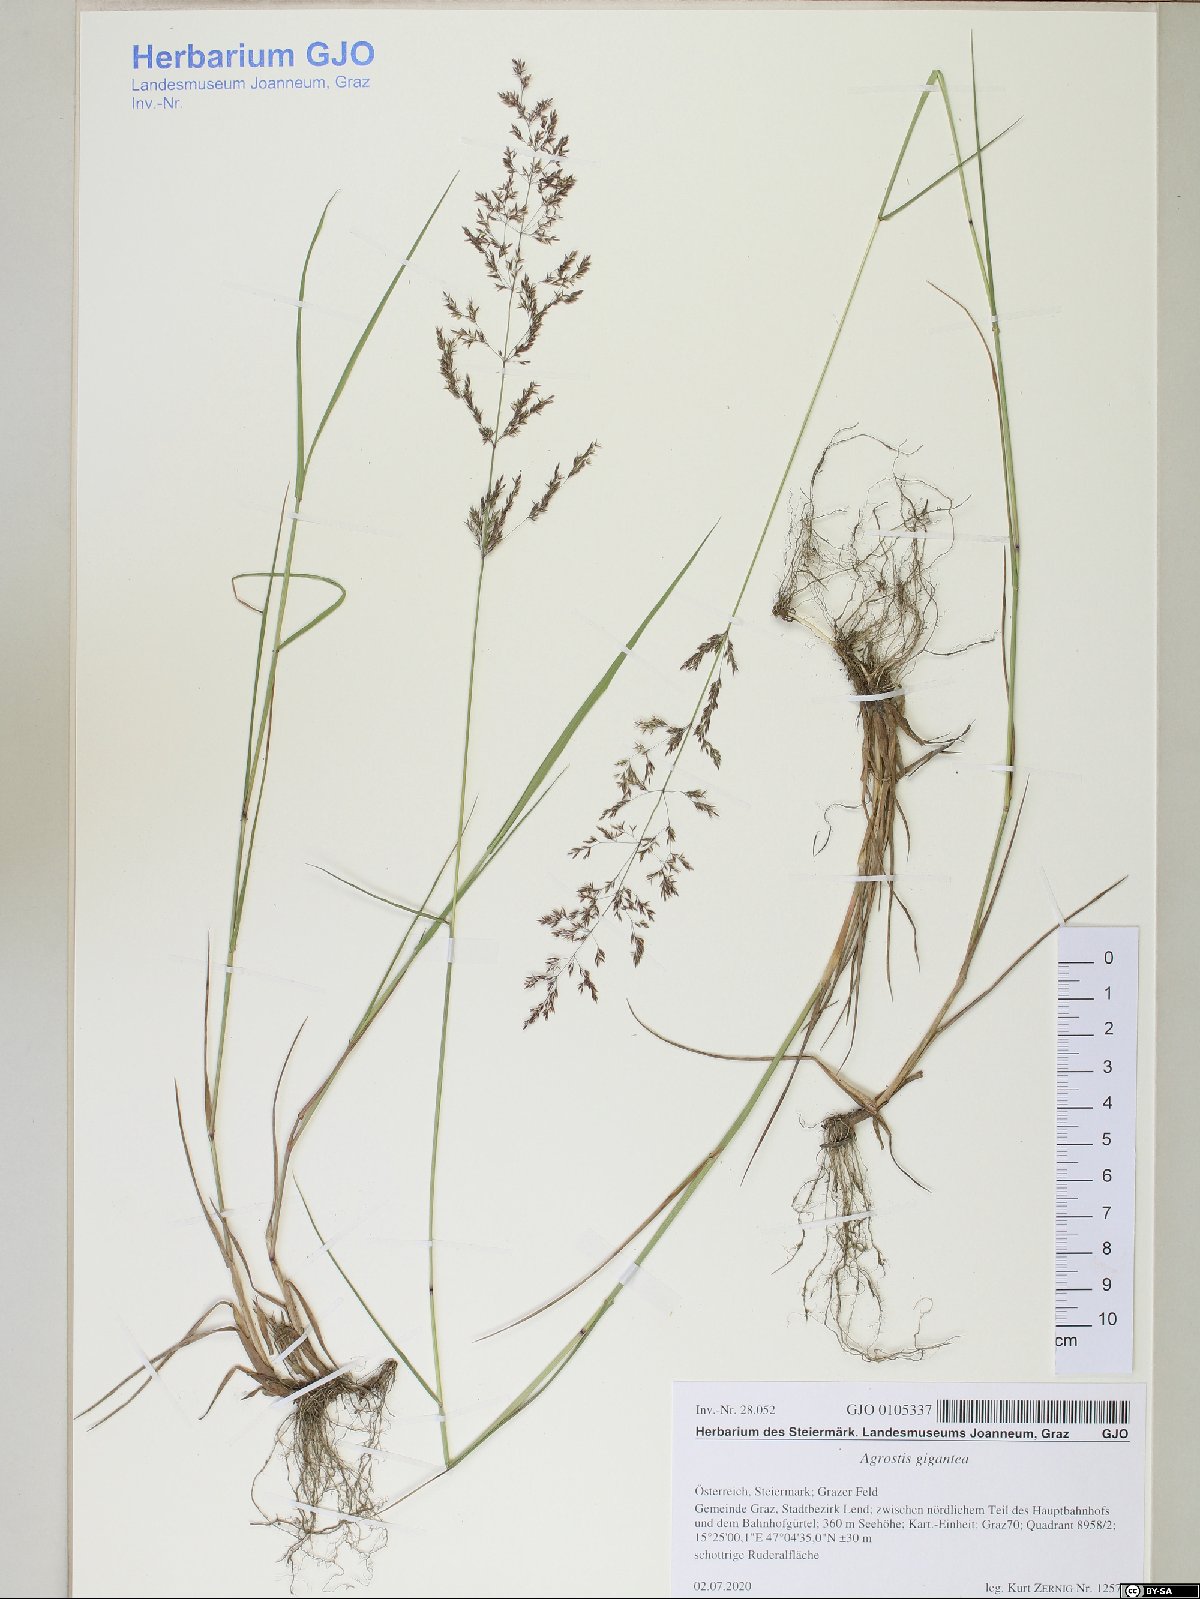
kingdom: Plantae
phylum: Tracheophyta
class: Liliopsida
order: Poales
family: Poaceae
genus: Agrostis
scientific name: Agrostis gigantea
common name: Black bent
